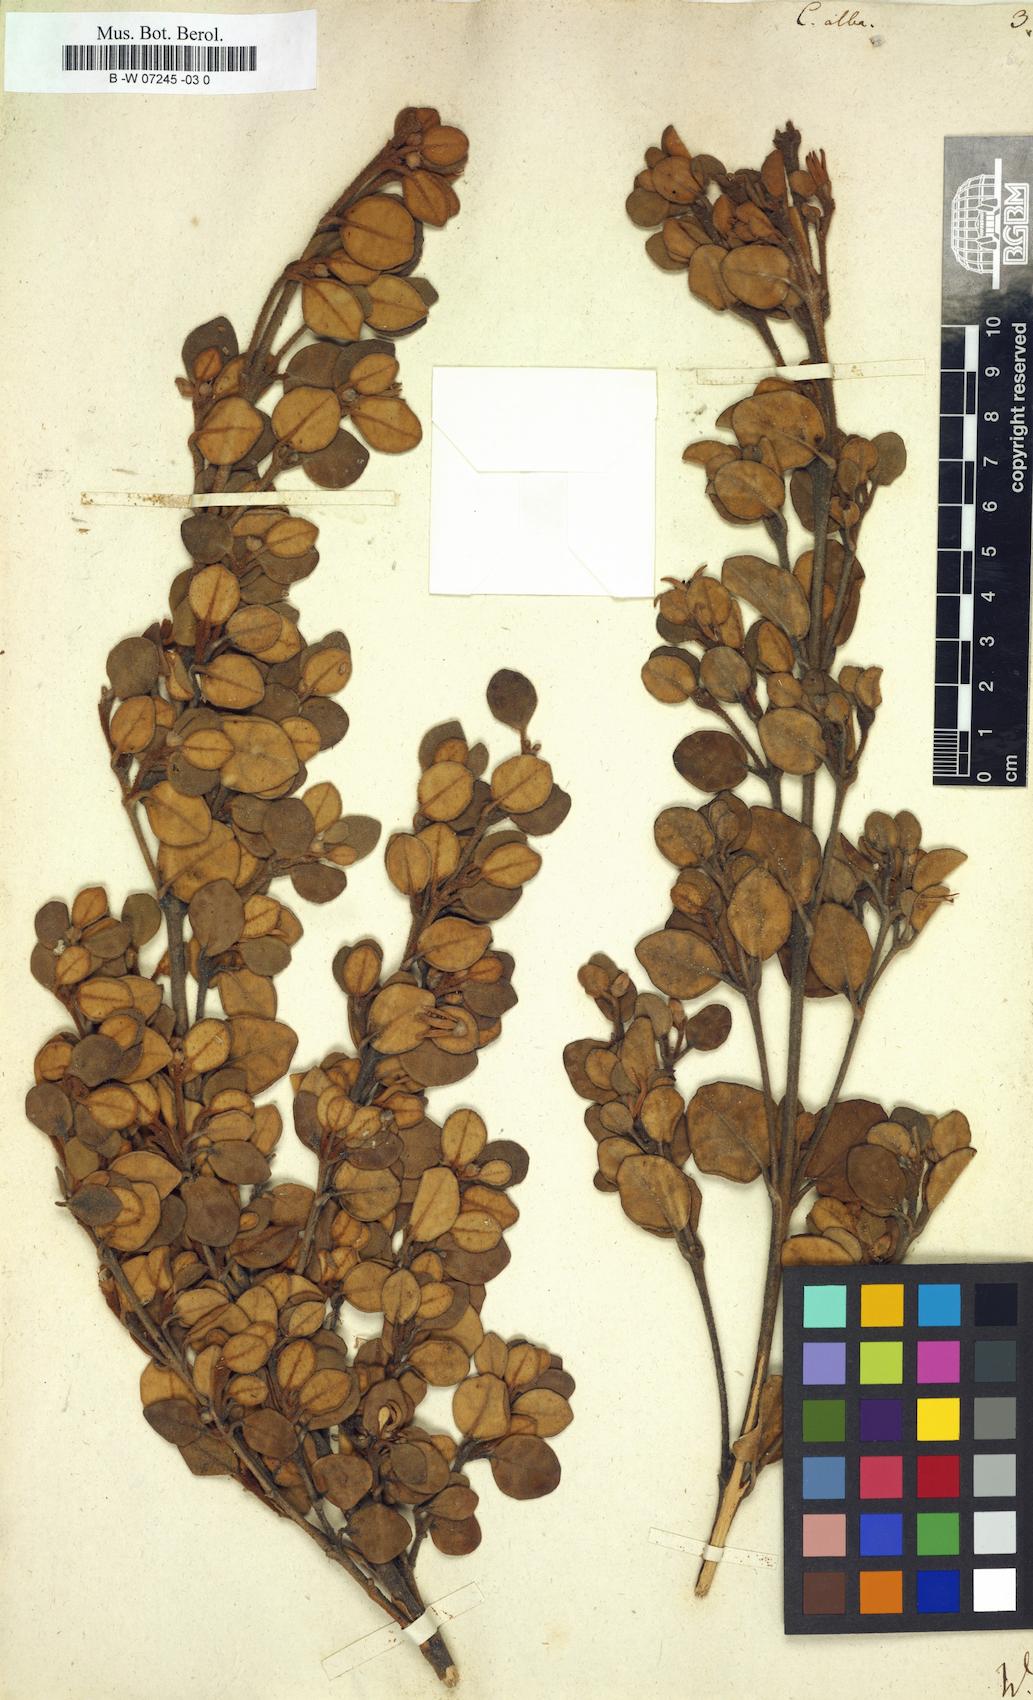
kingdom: Plantae
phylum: Tracheophyta
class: Magnoliopsida
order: Sapindales
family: Rutaceae
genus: Correa
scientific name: Correa alba
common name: White correa
